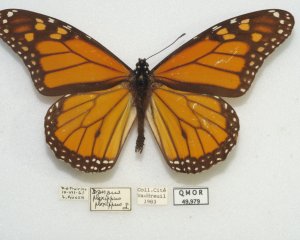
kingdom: Animalia
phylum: Arthropoda
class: Insecta
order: Lepidoptera
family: Nymphalidae
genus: Danaus
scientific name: Danaus plexippus
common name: Monarch
